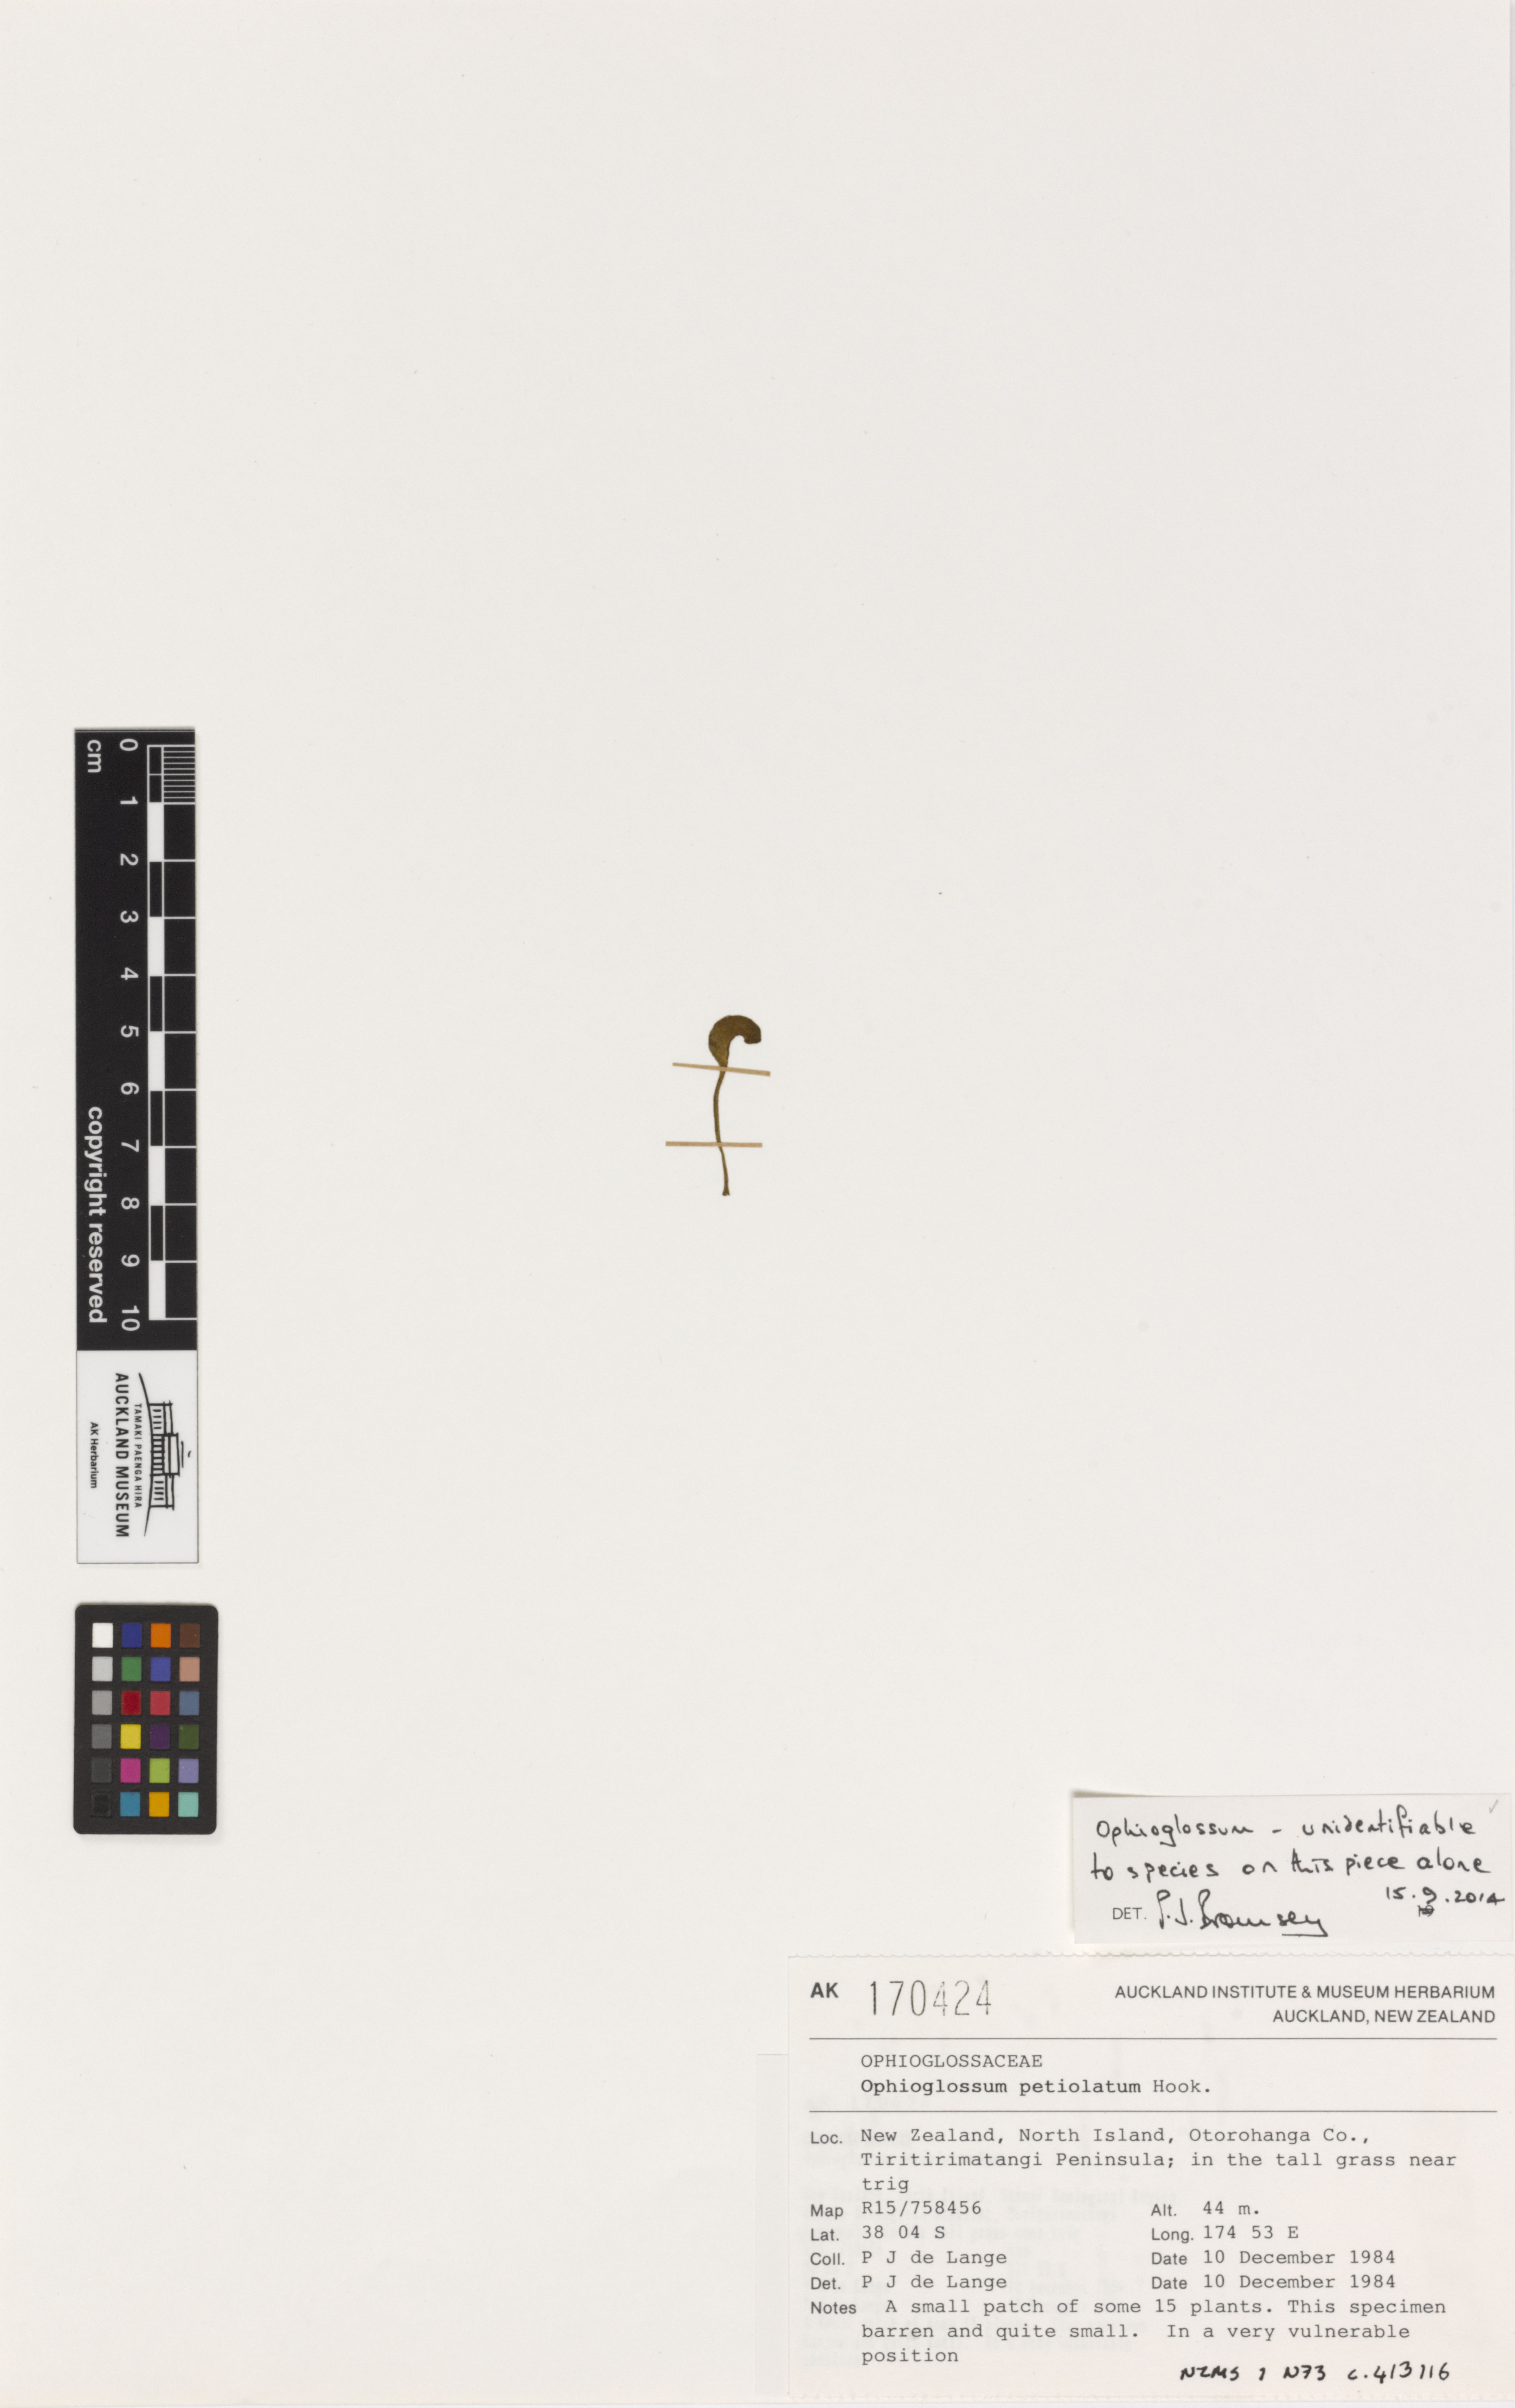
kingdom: Plantae
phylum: Tracheophyta
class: Polypodiopsida
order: Ophioglossales
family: Ophioglossaceae
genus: Ophioglossum
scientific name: Ophioglossum
